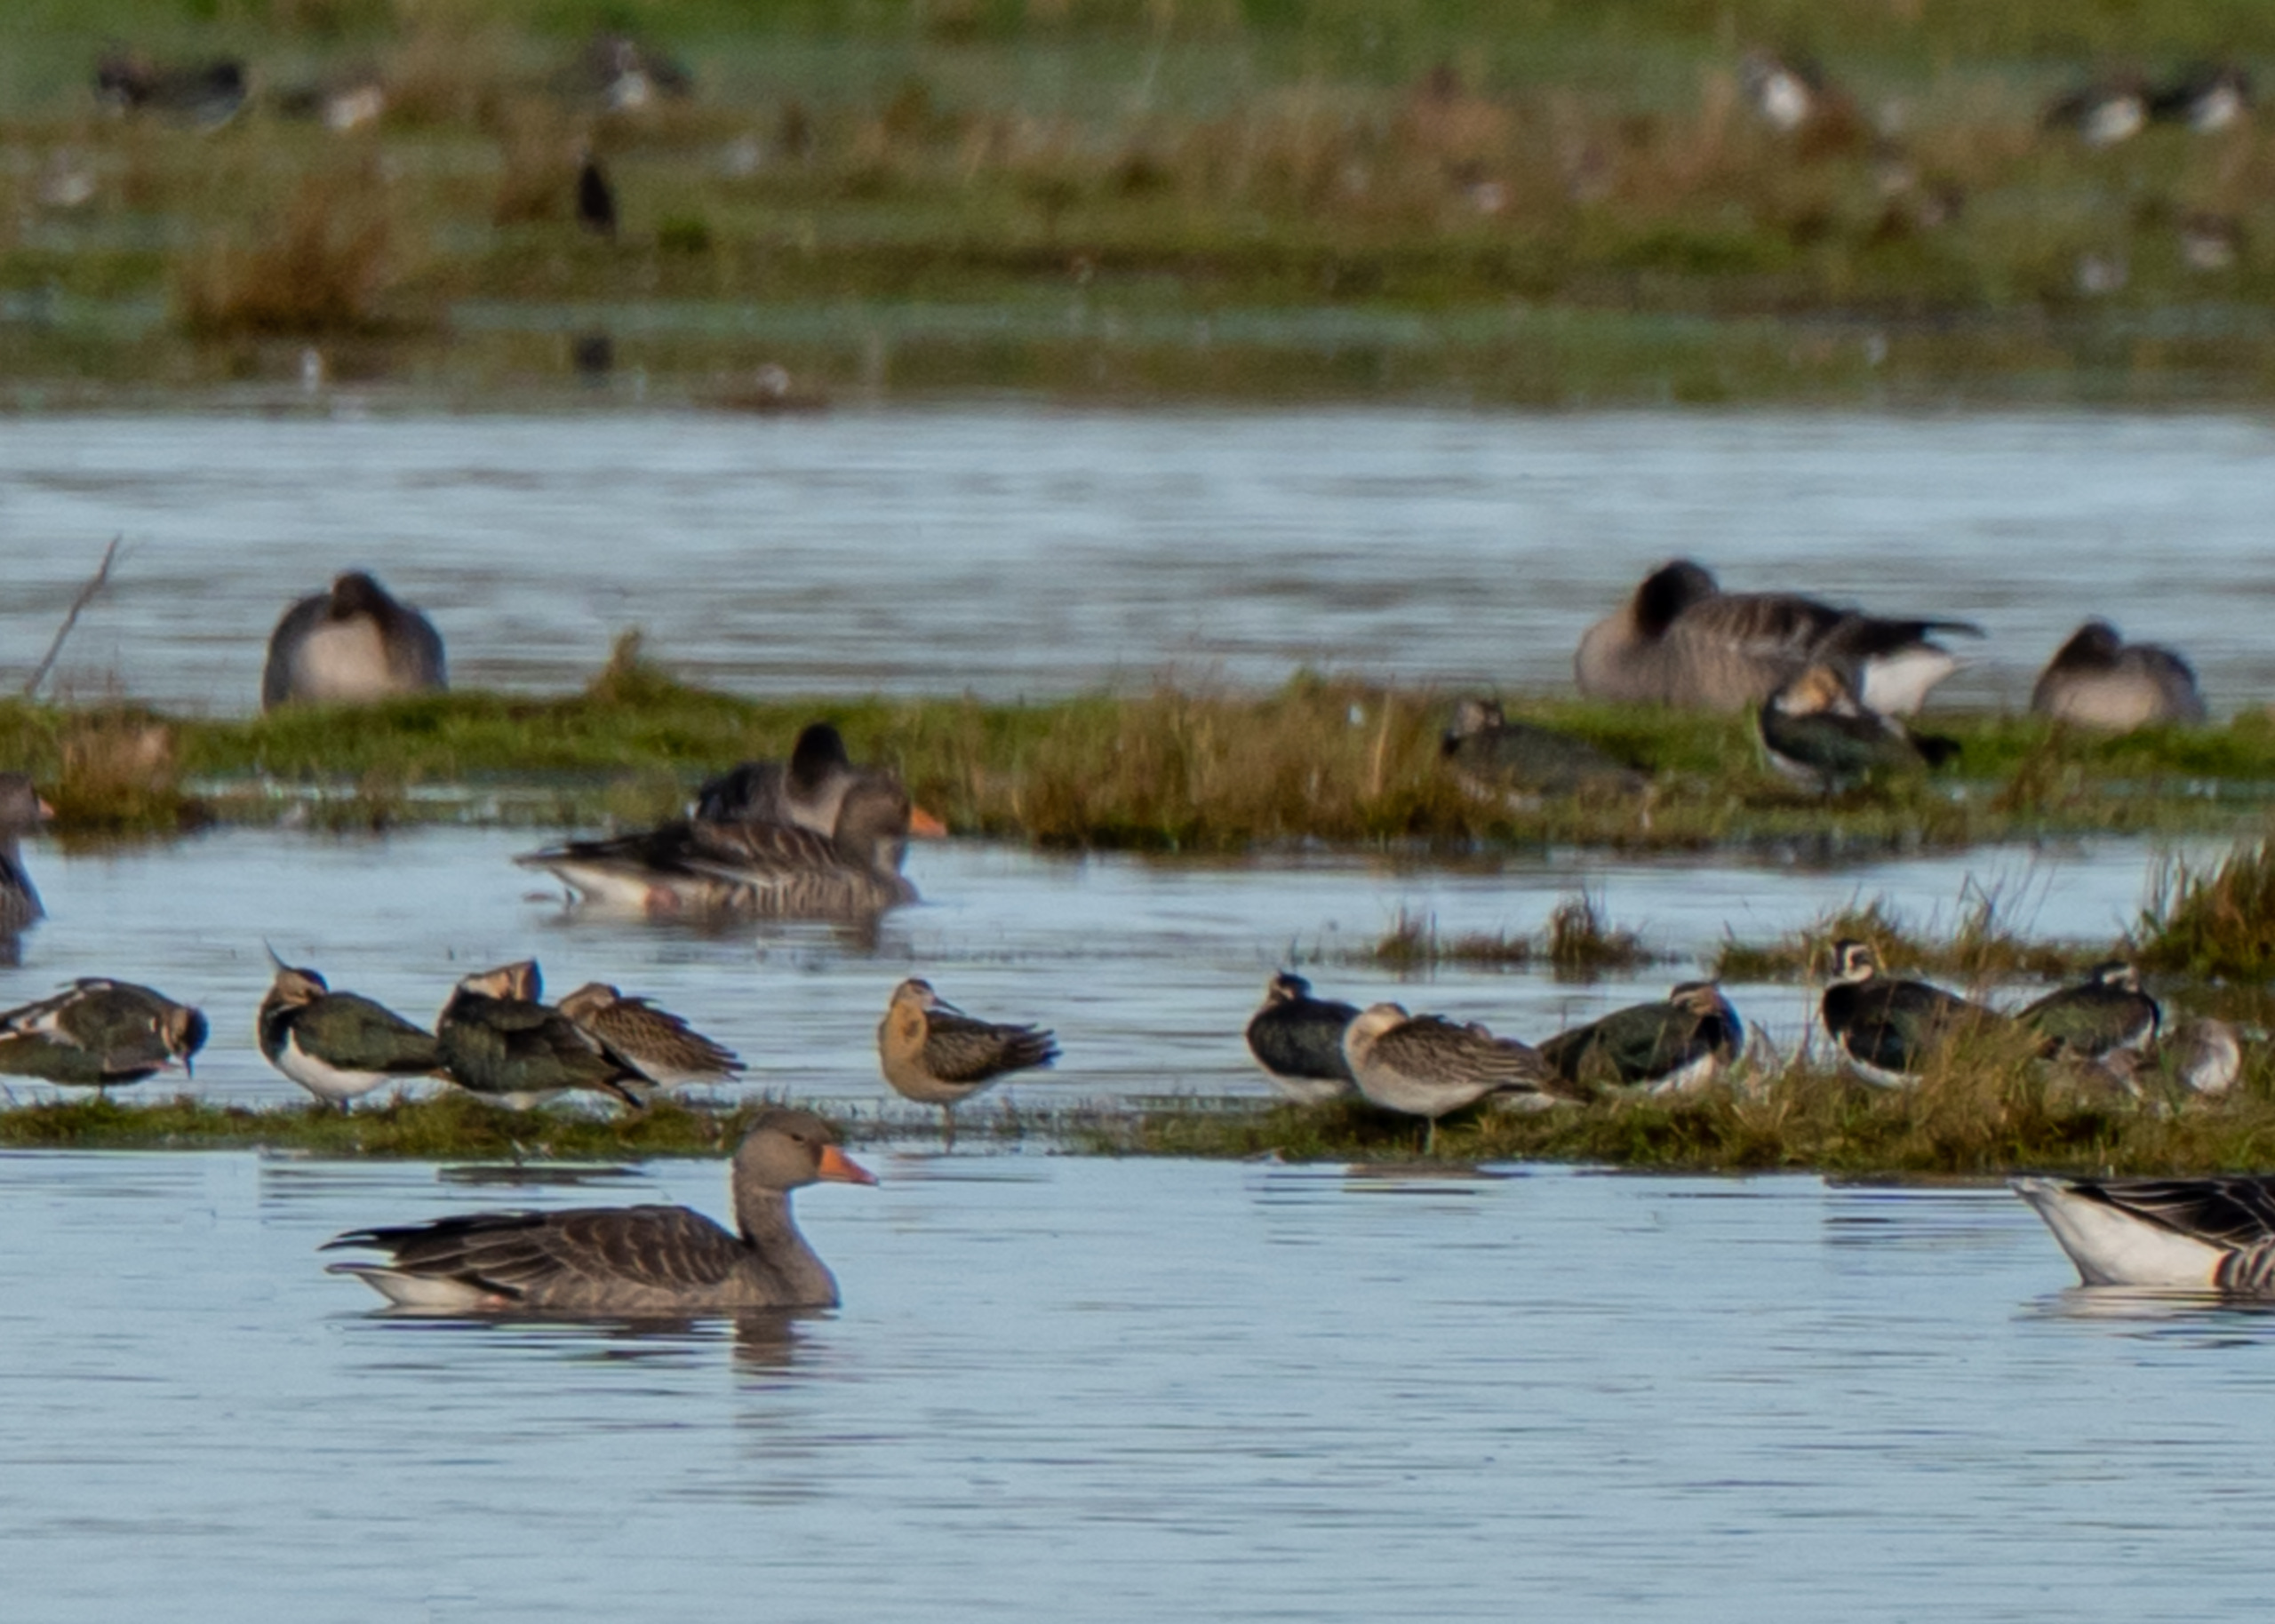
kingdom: Animalia
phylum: Chordata
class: Aves
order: Charadriiformes
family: Scolopacidae
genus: Calidris
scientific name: Calidris pugnax
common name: Brushane
